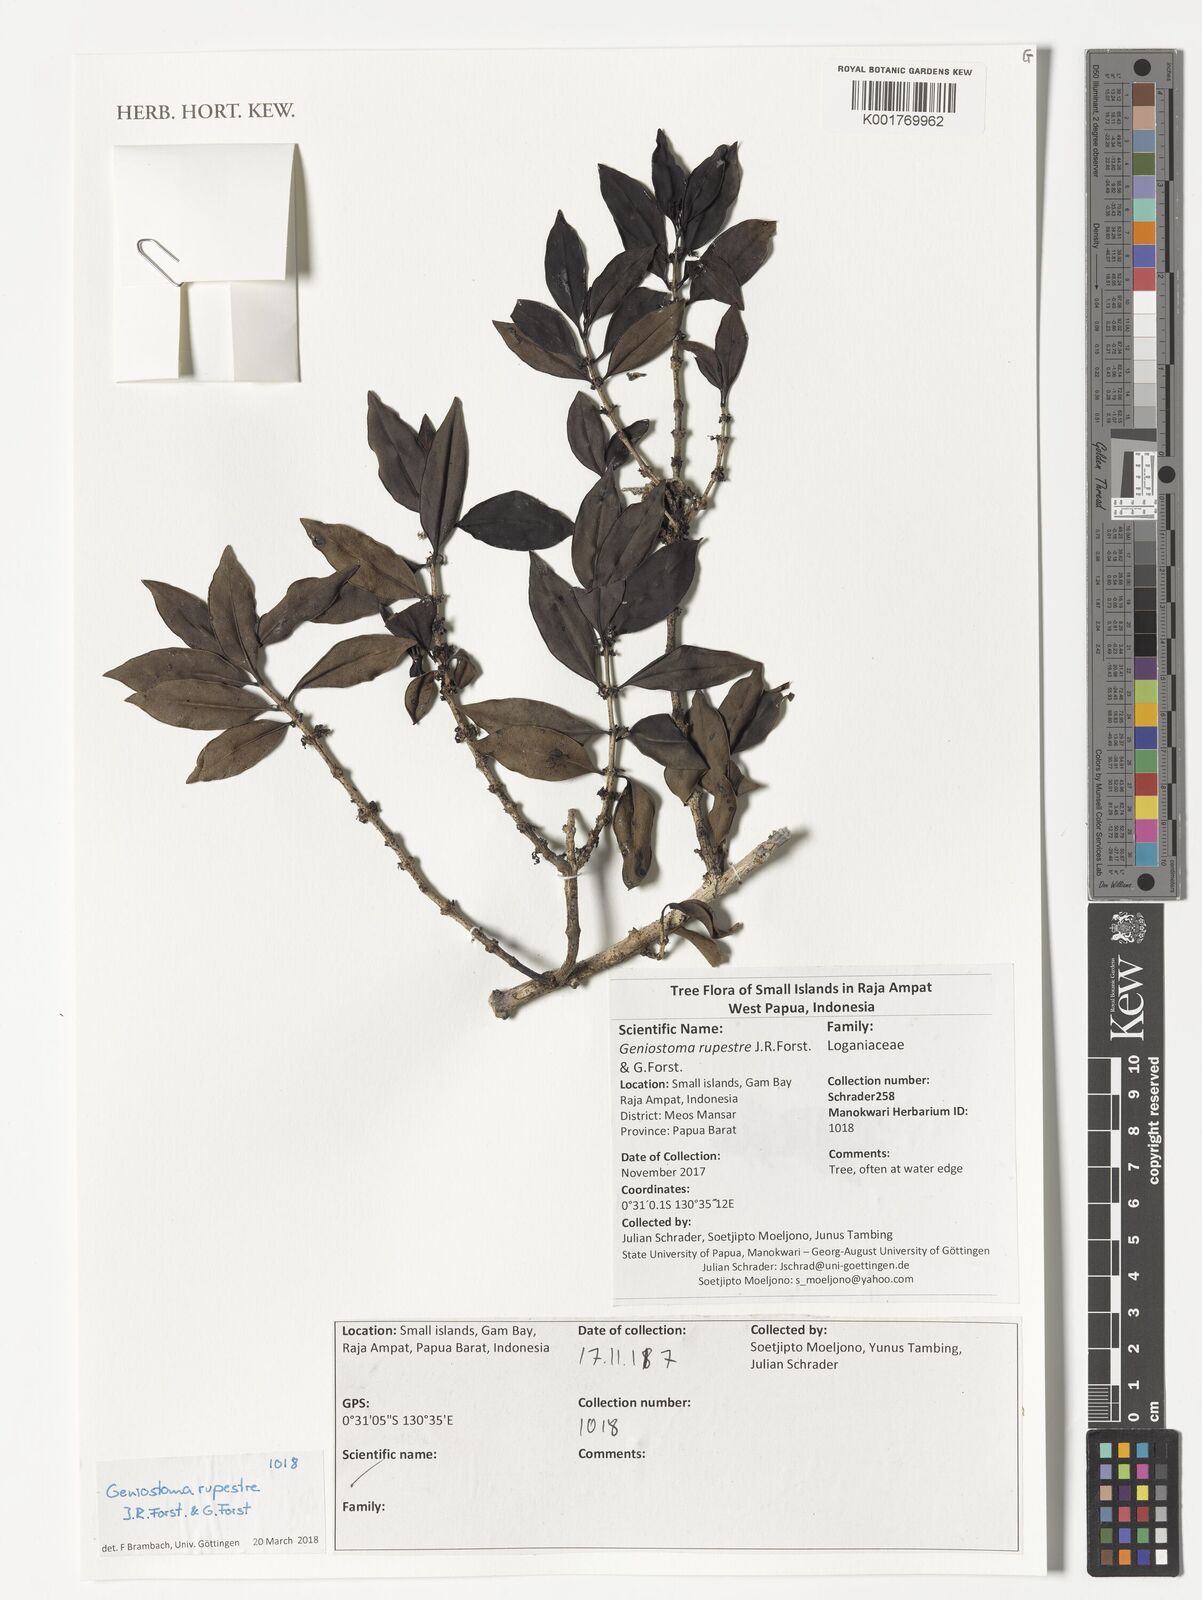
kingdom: Plantae
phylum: Tracheophyta
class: Magnoliopsida
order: Gentianales
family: Loganiaceae
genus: Geniostoma
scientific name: Geniostoma rupestre
